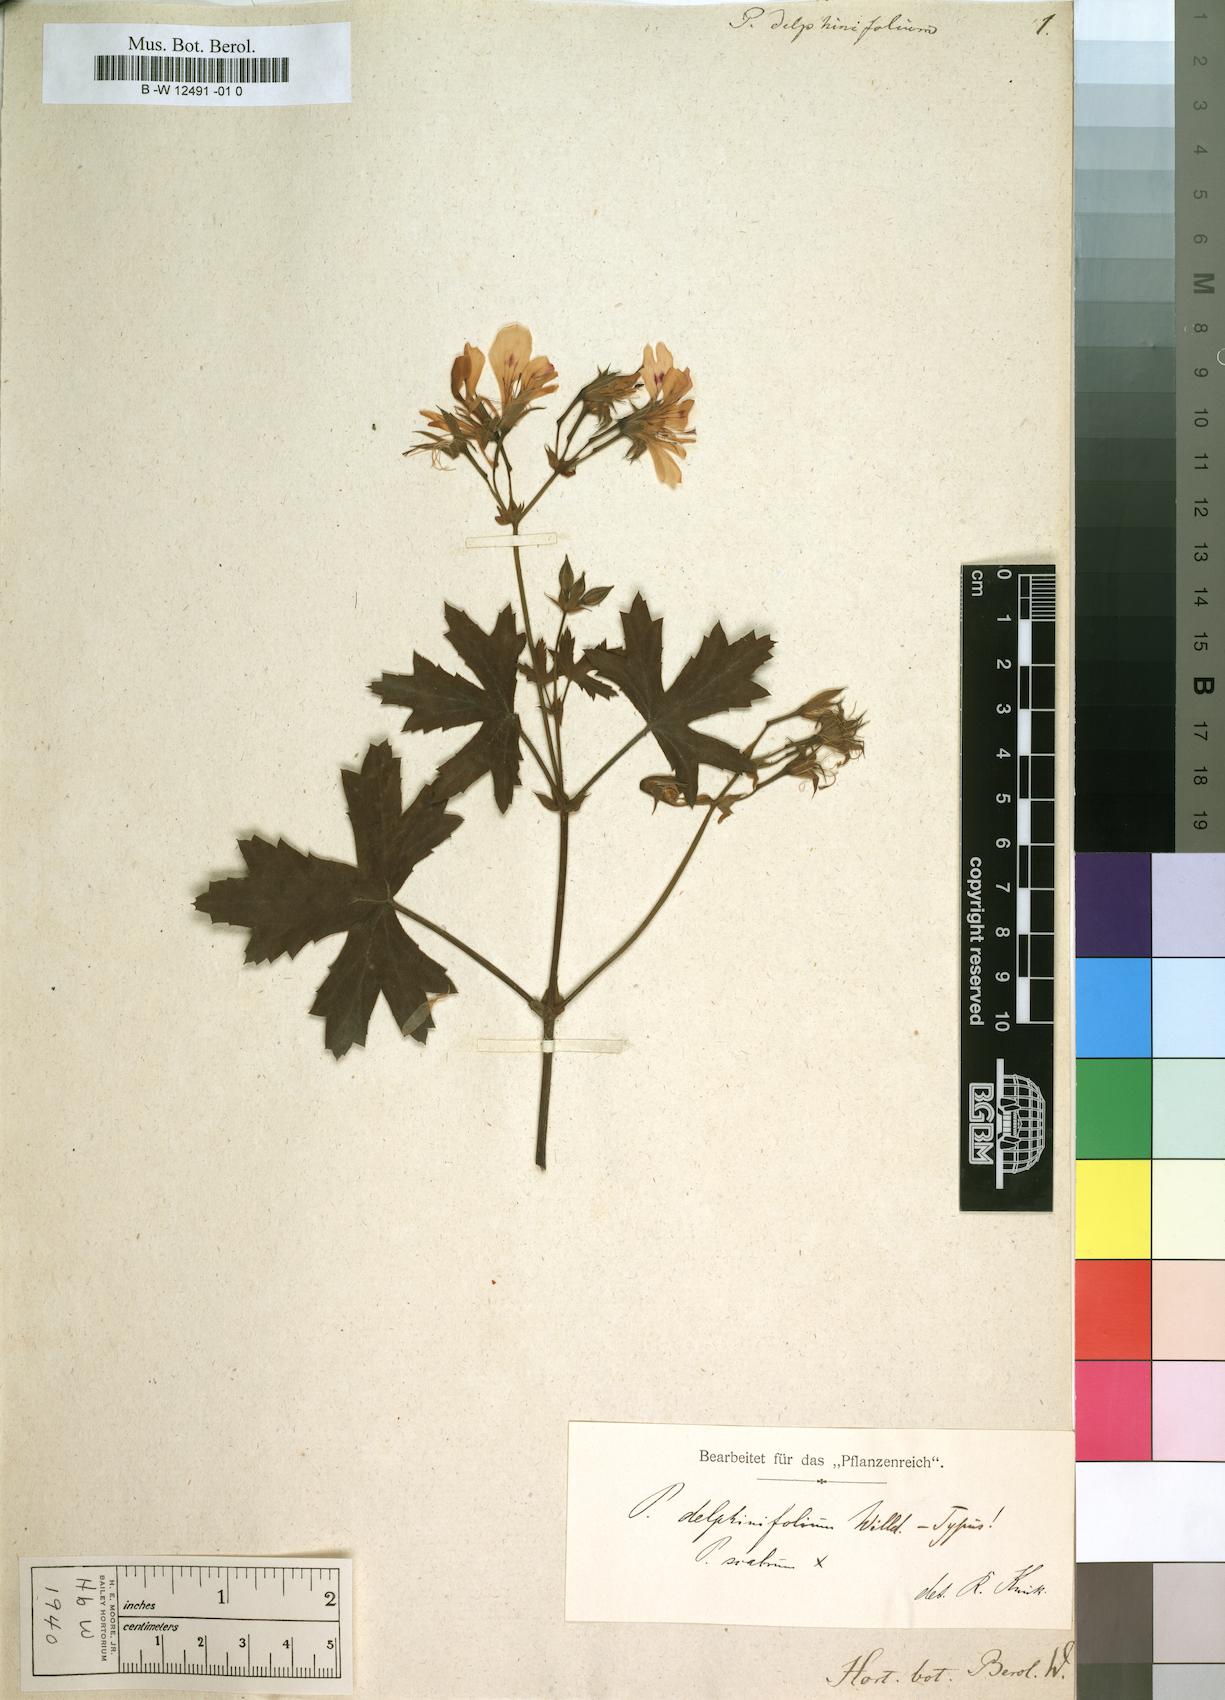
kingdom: Plantae
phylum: Tracheophyta
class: Magnoliopsida
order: Geraniales
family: Geraniaceae
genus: Pelargonium
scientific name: Pelargonium scabrum
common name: Apricot geranium
